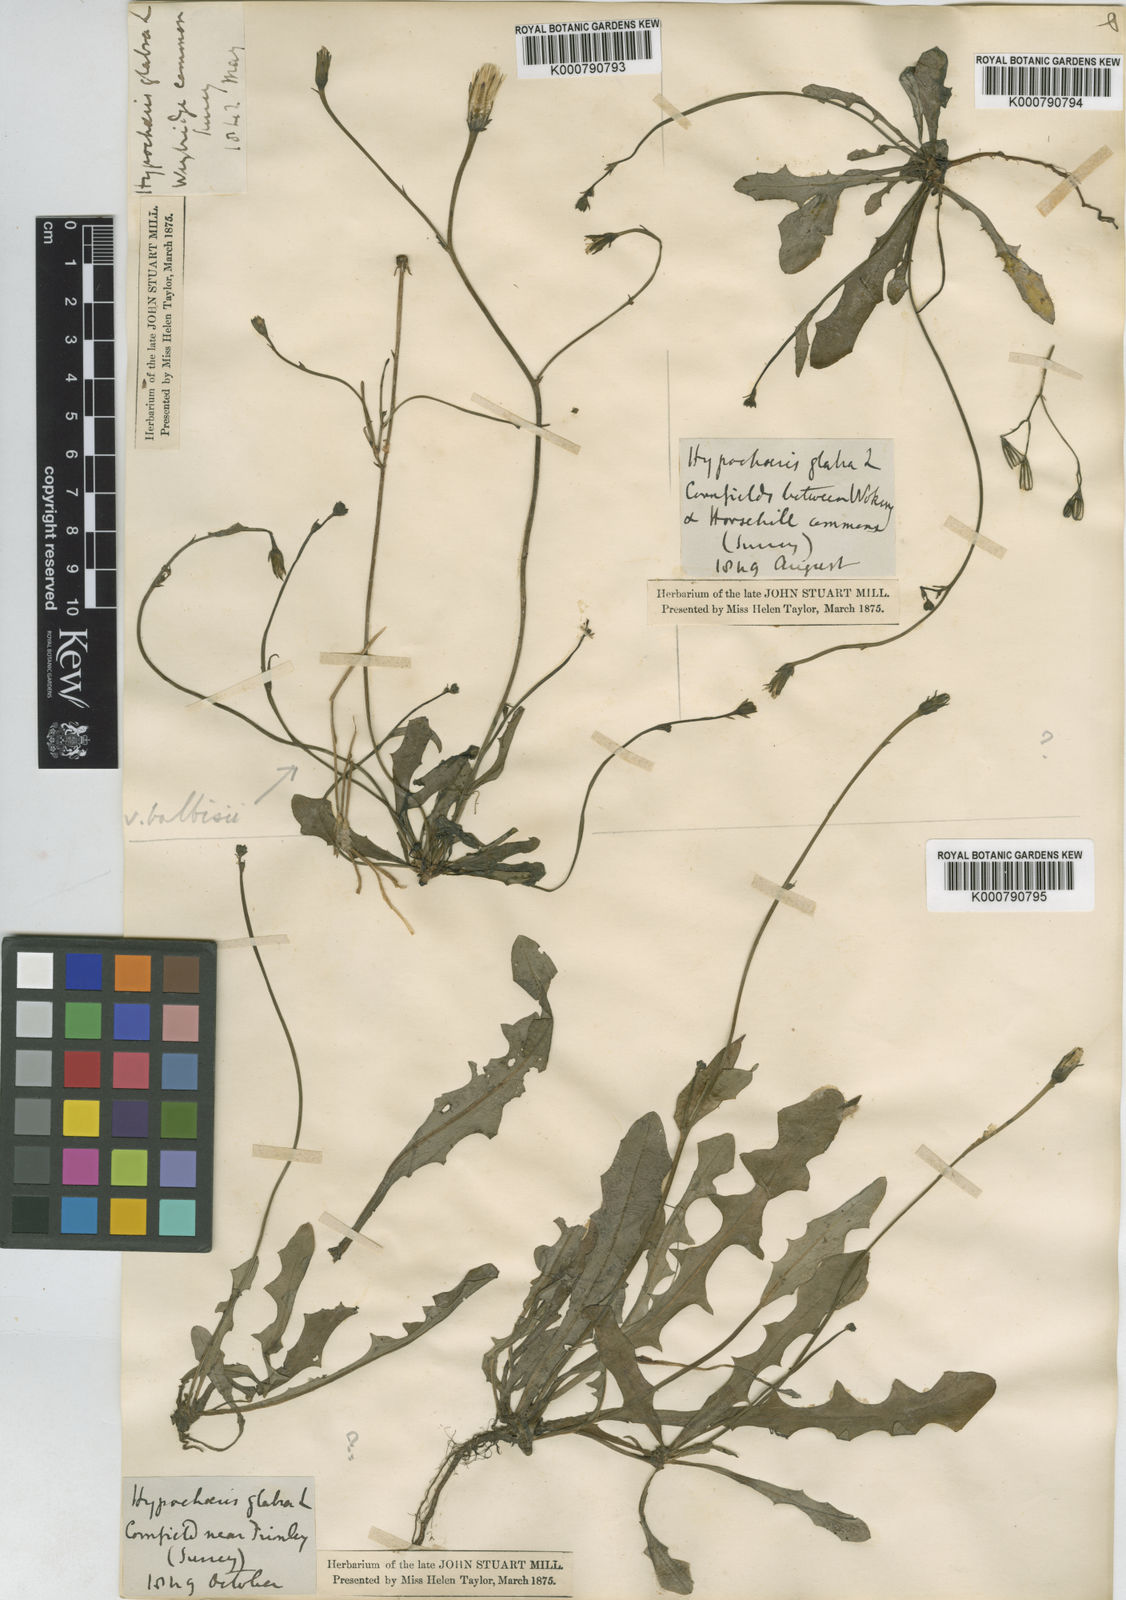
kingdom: Plantae
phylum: Tracheophyta
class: Magnoliopsida
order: Asterales
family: Asteraceae
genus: Hypochaeris
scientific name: Hypochaeris glabra
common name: Smooth catsear
